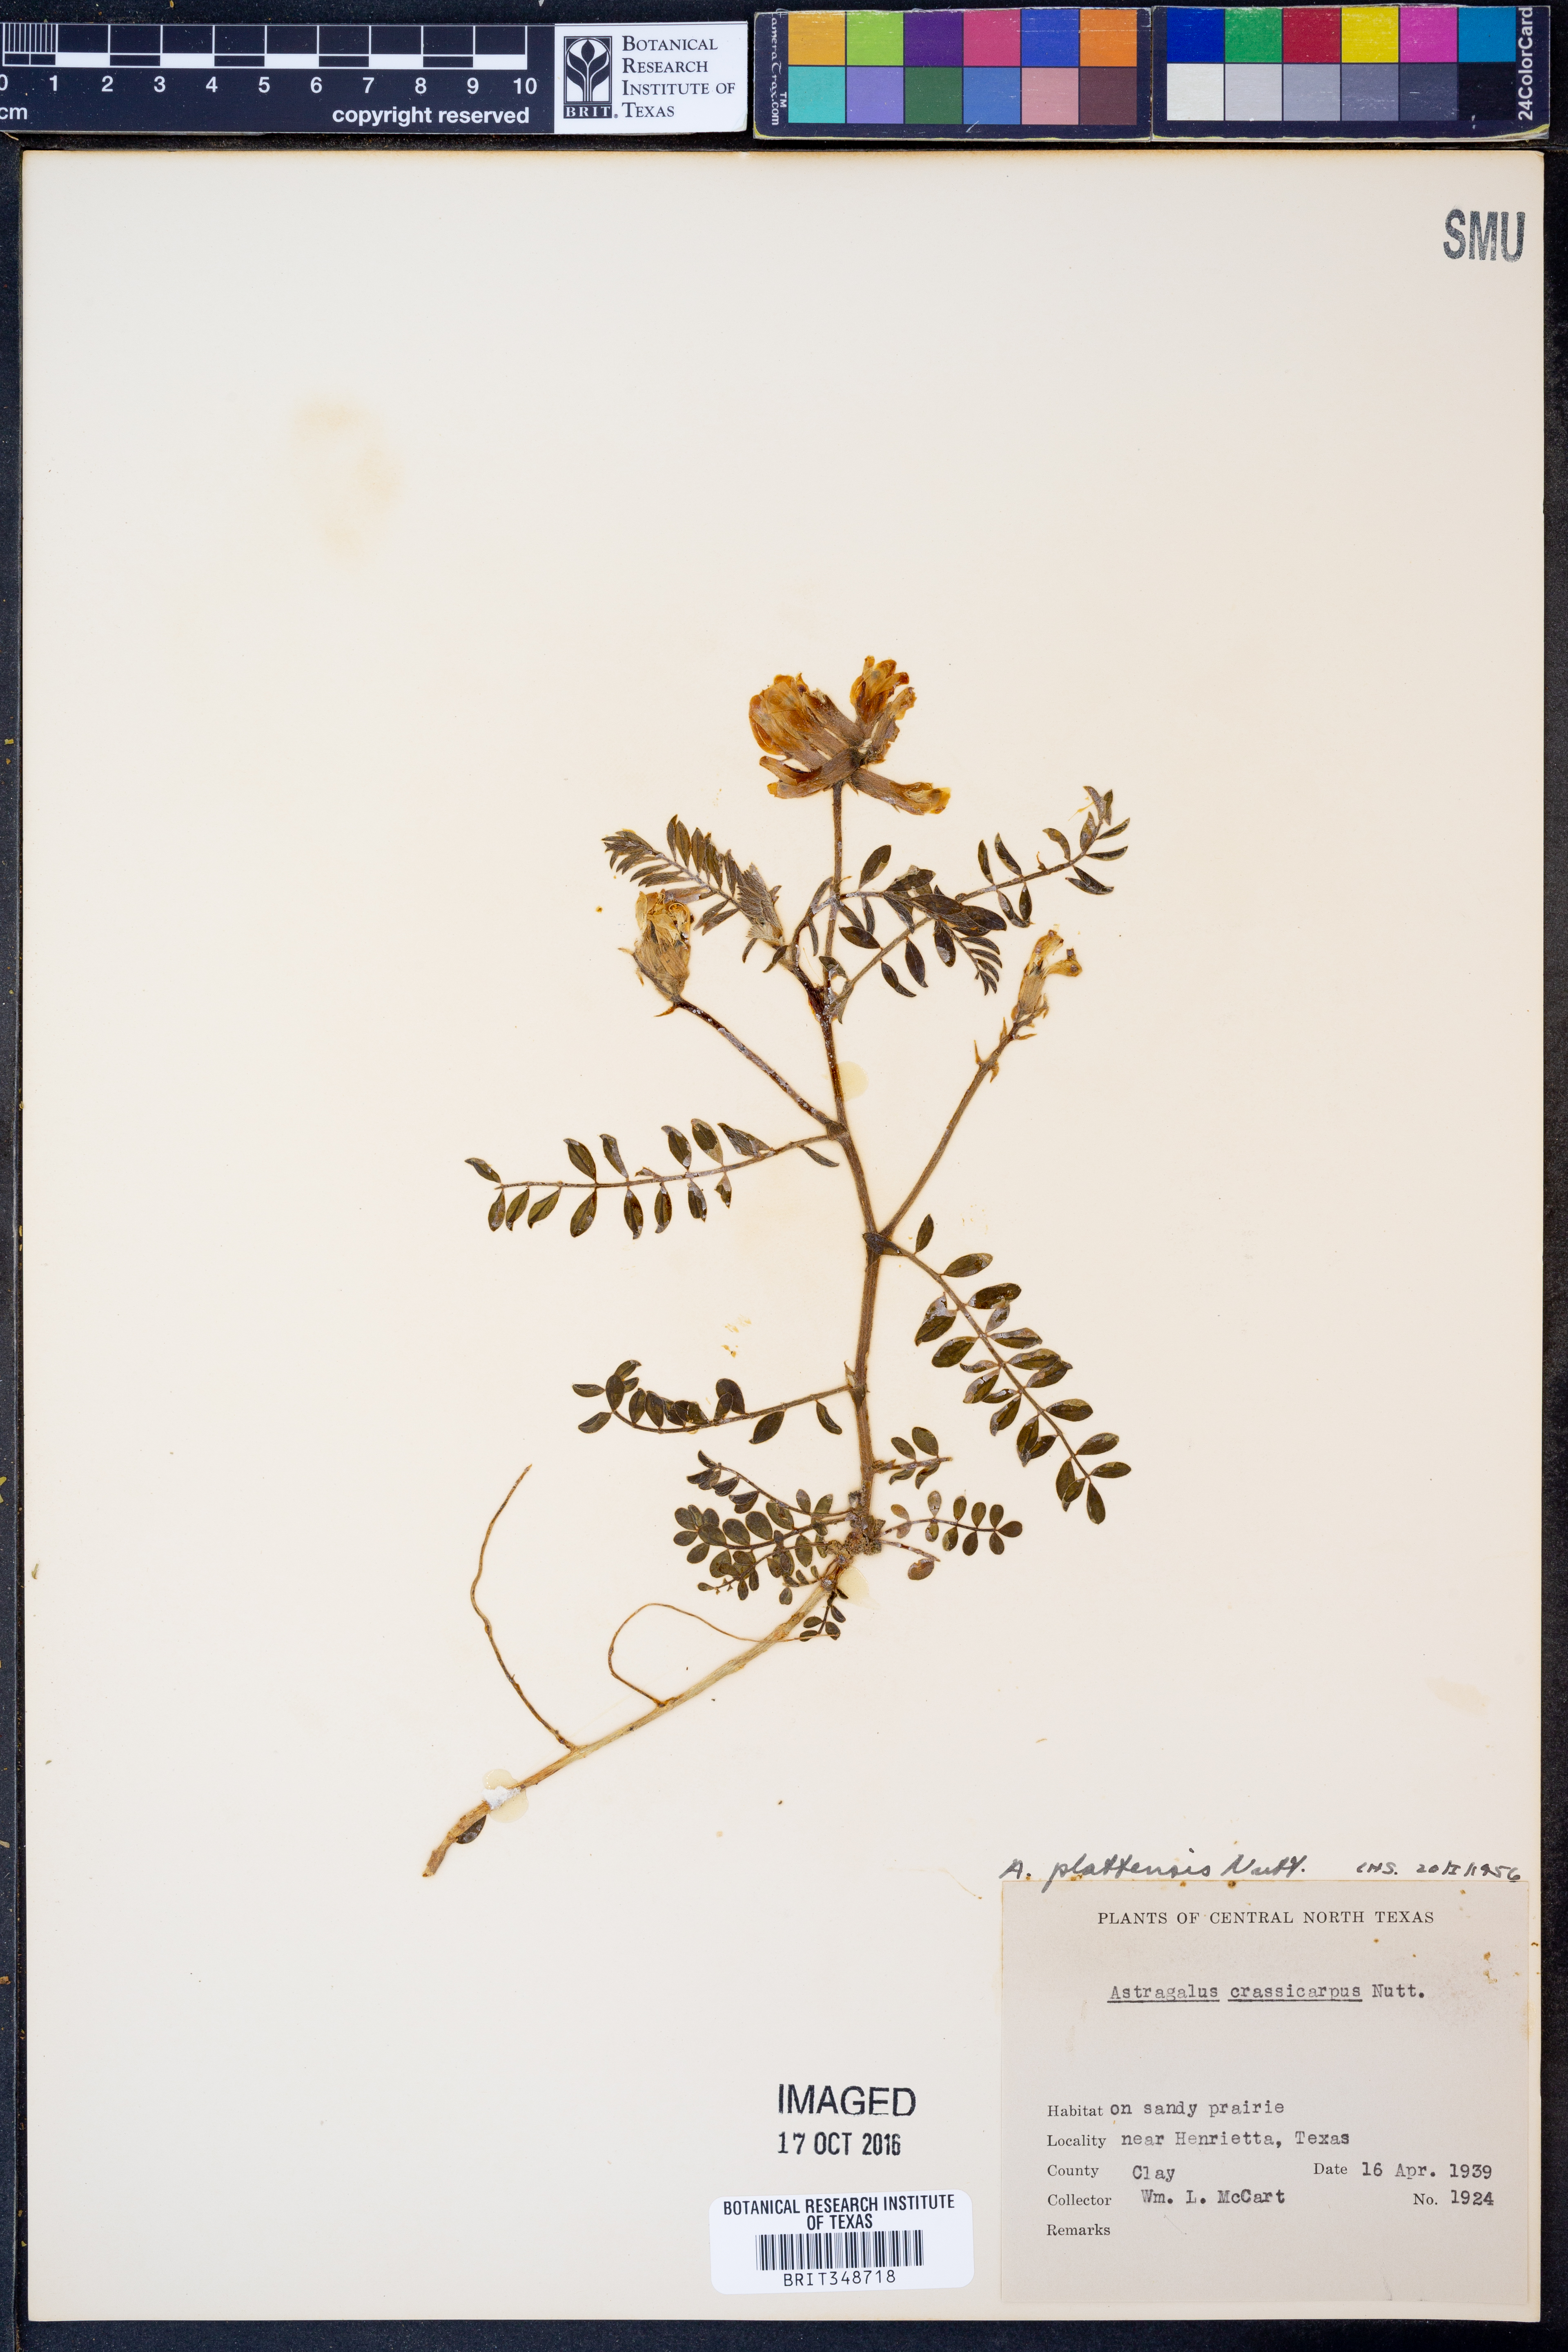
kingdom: Plantae
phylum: Tracheophyta
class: Magnoliopsida
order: Fabales
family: Fabaceae
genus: Astragalus
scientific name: Astragalus plattensis
